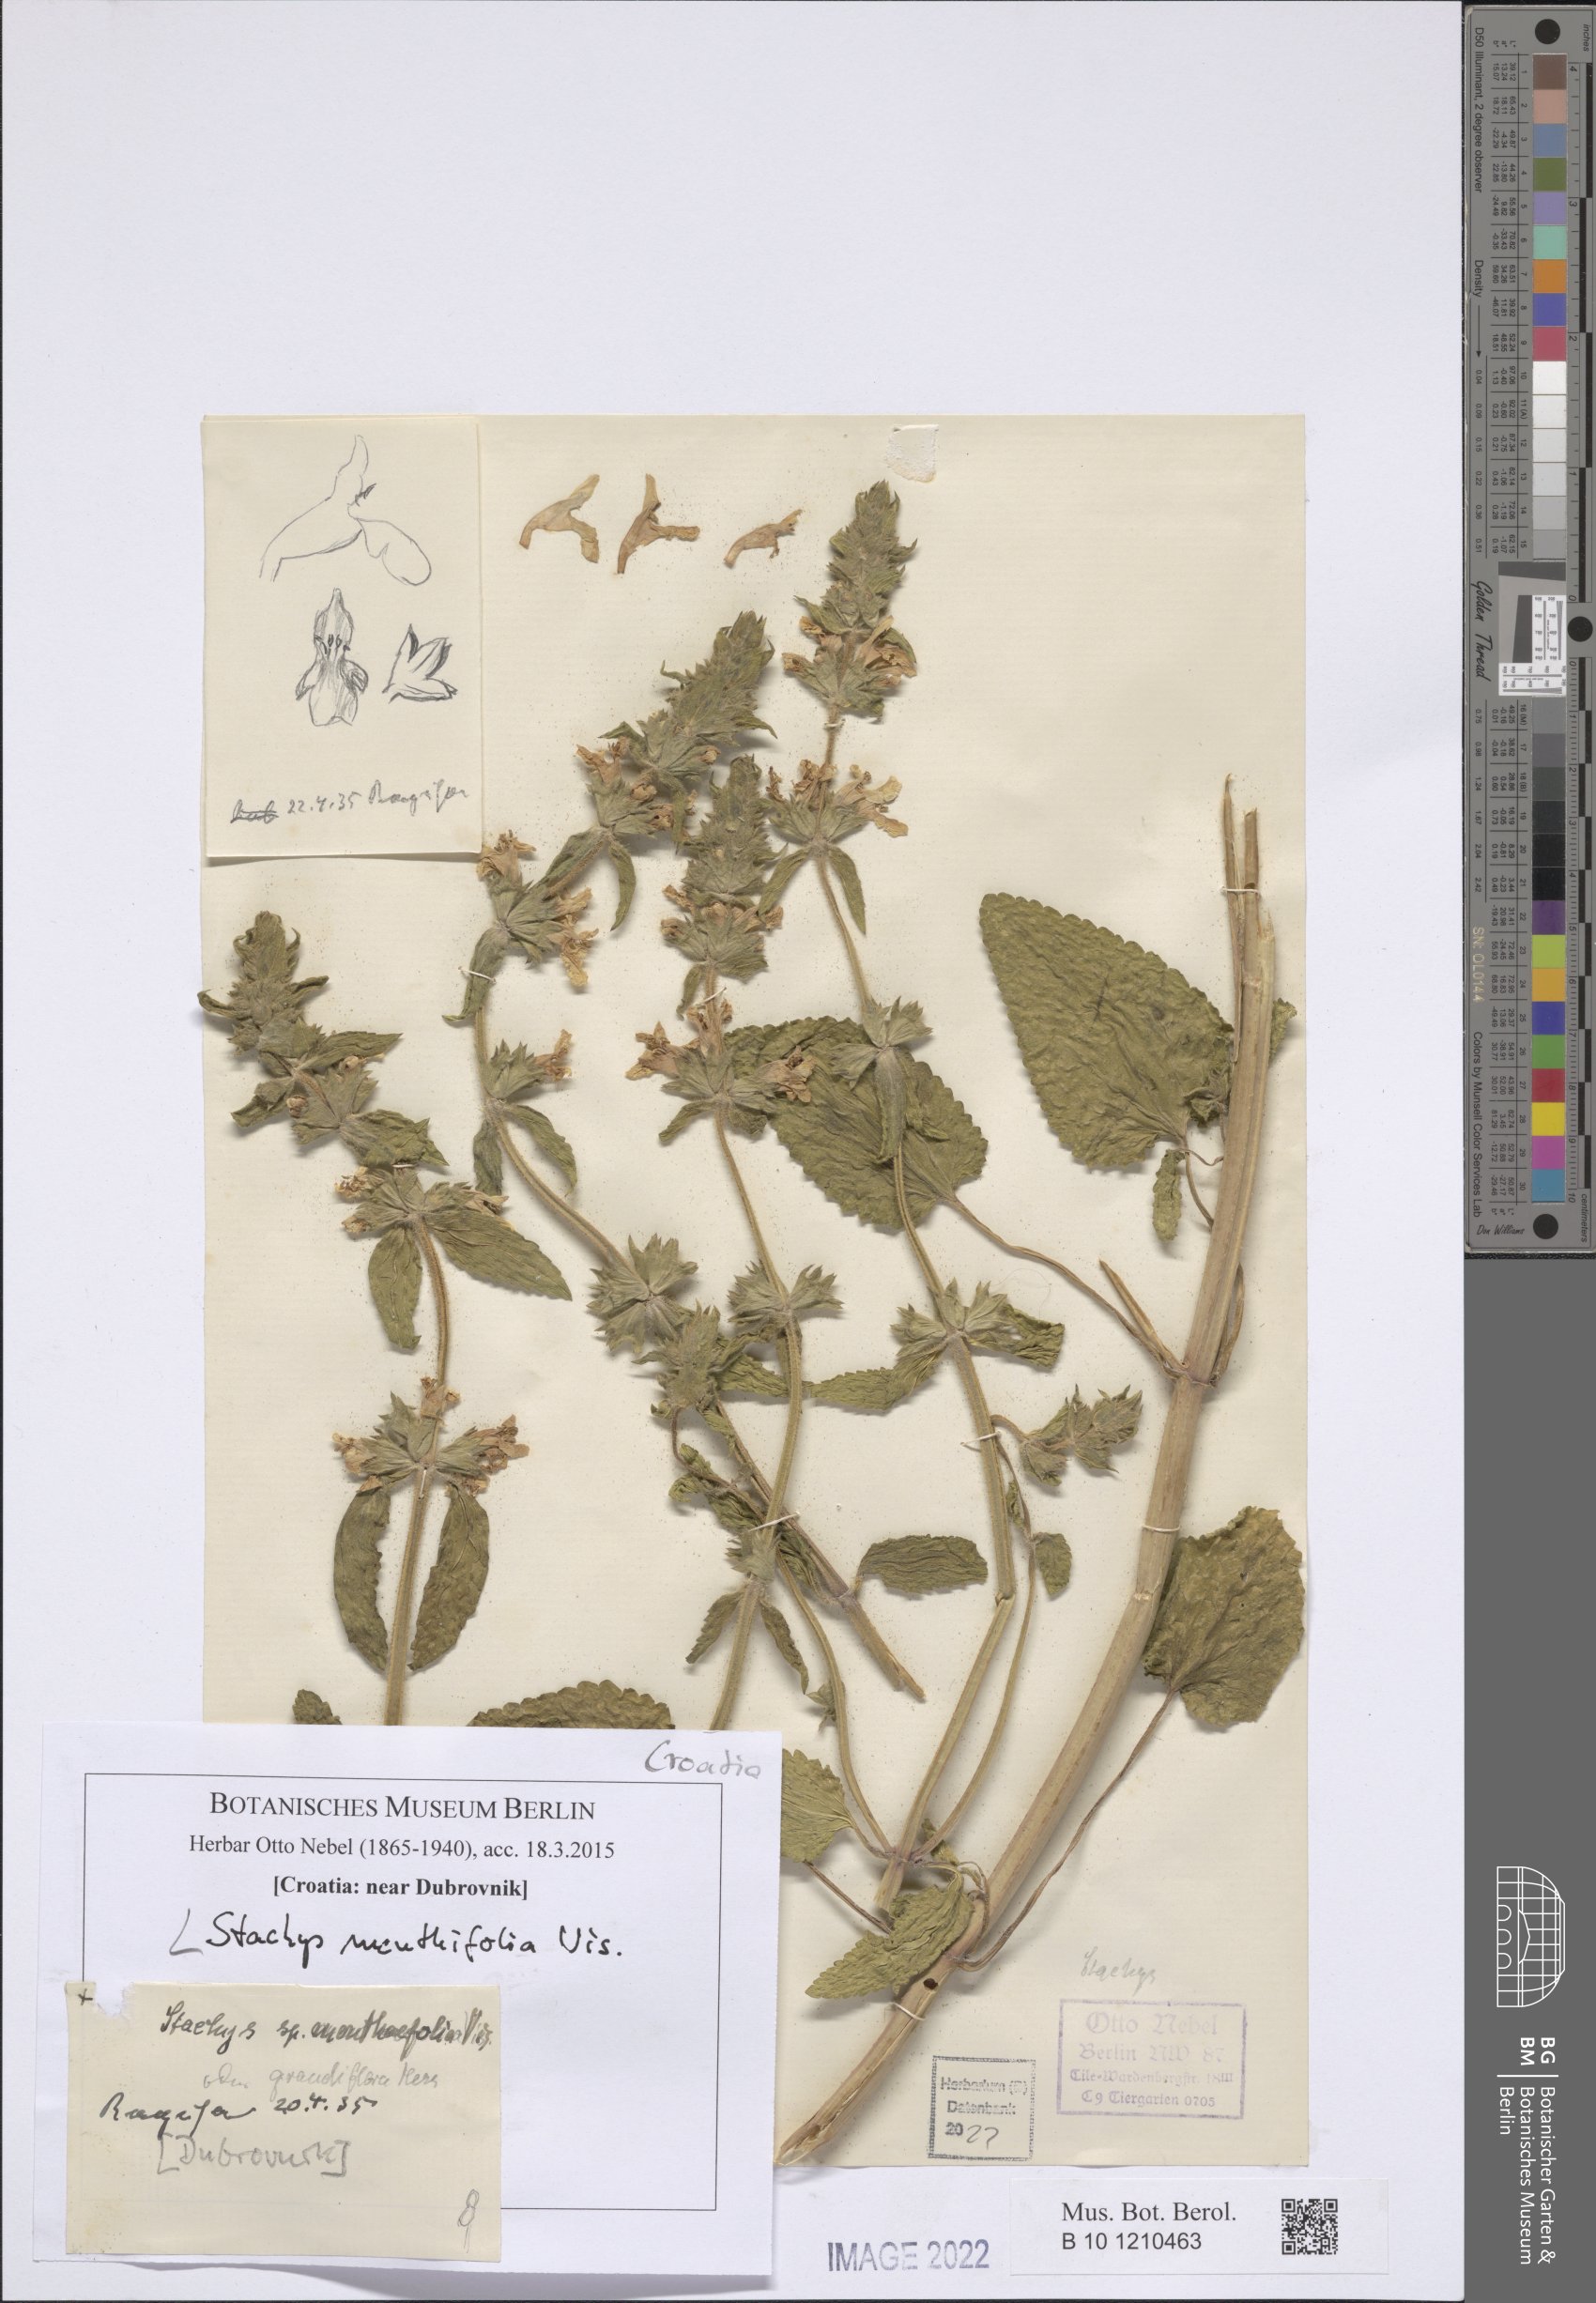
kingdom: Plantae
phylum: Tracheophyta
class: Magnoliopsida
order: Lamiales
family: Lamiaceae
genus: Stachys
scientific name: Stachys menthifolia
